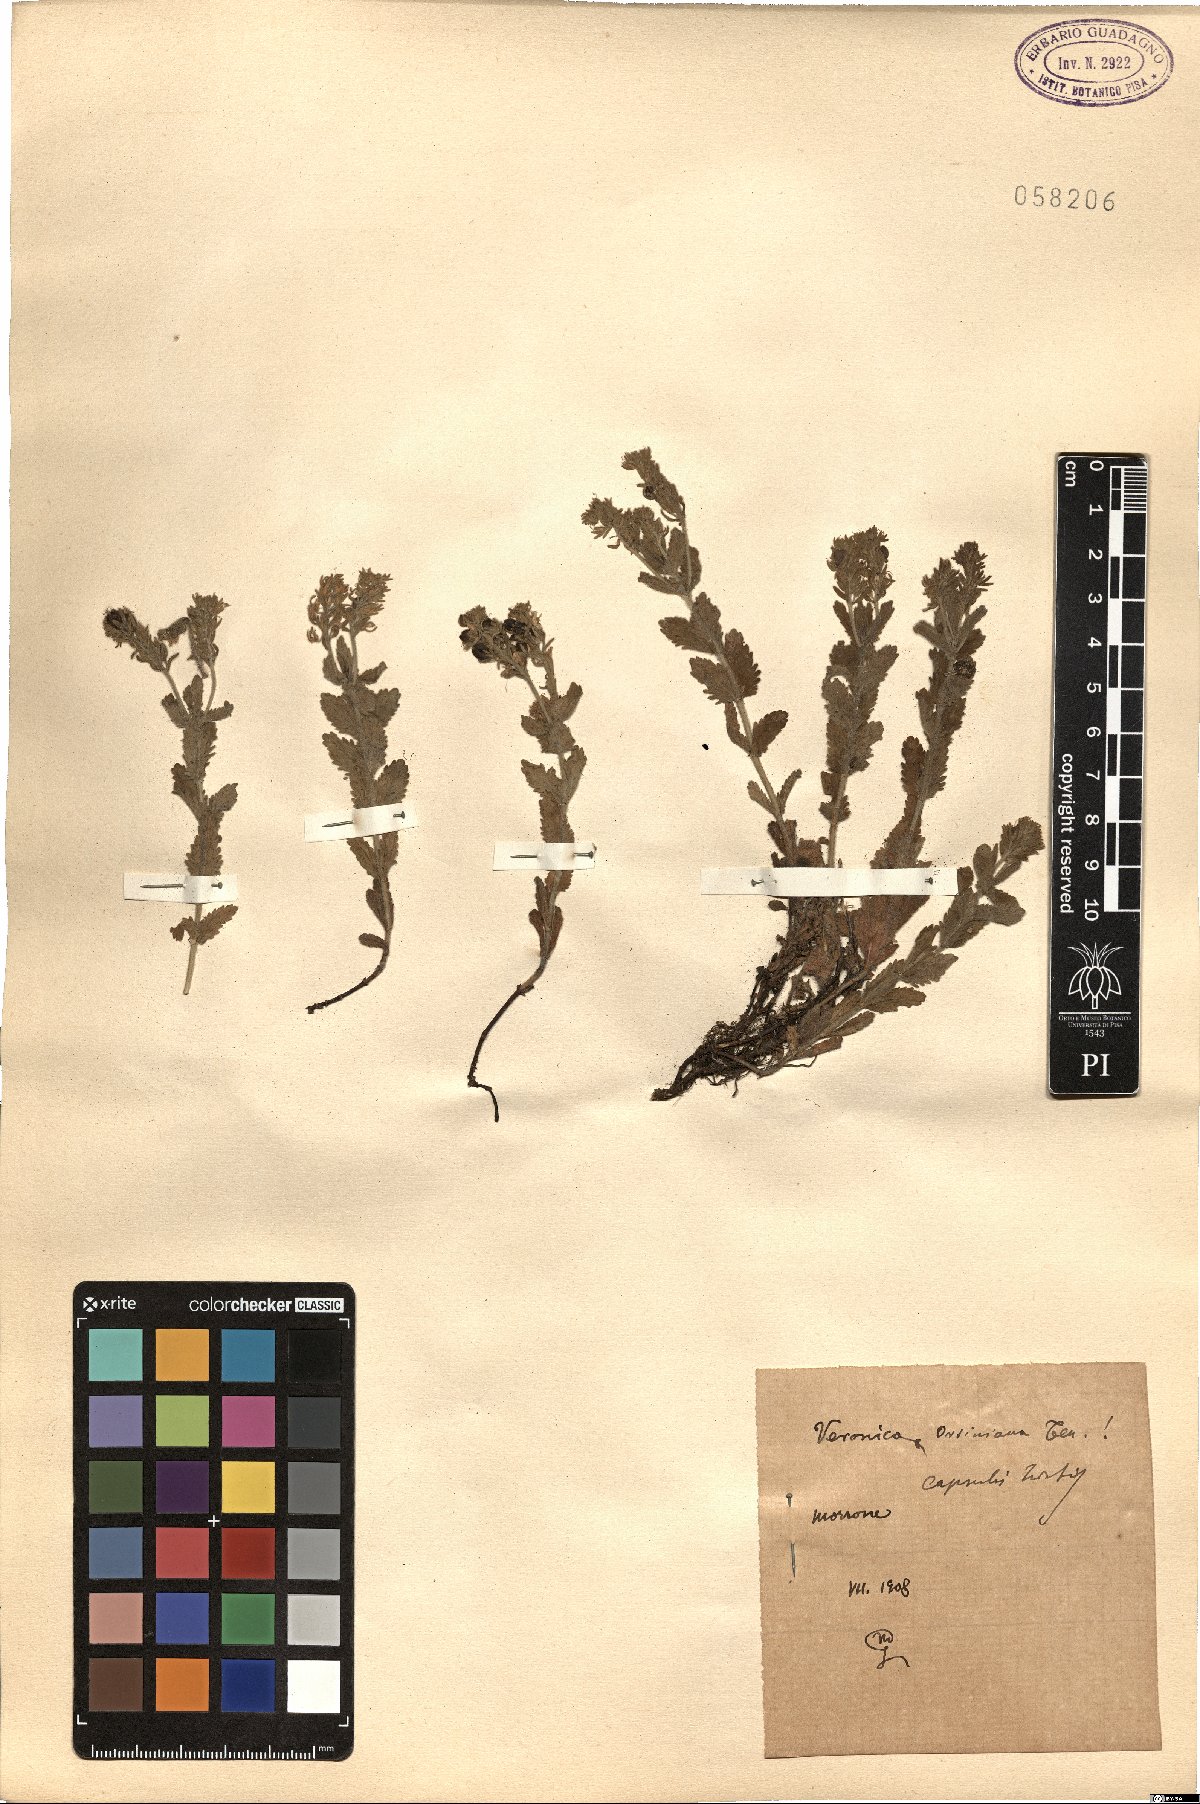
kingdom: Plantae
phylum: Tracheophyta
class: Magnoliopsida
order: Lamiales
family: Plantaginaceae
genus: Veronica
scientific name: Veronica orsiniana
